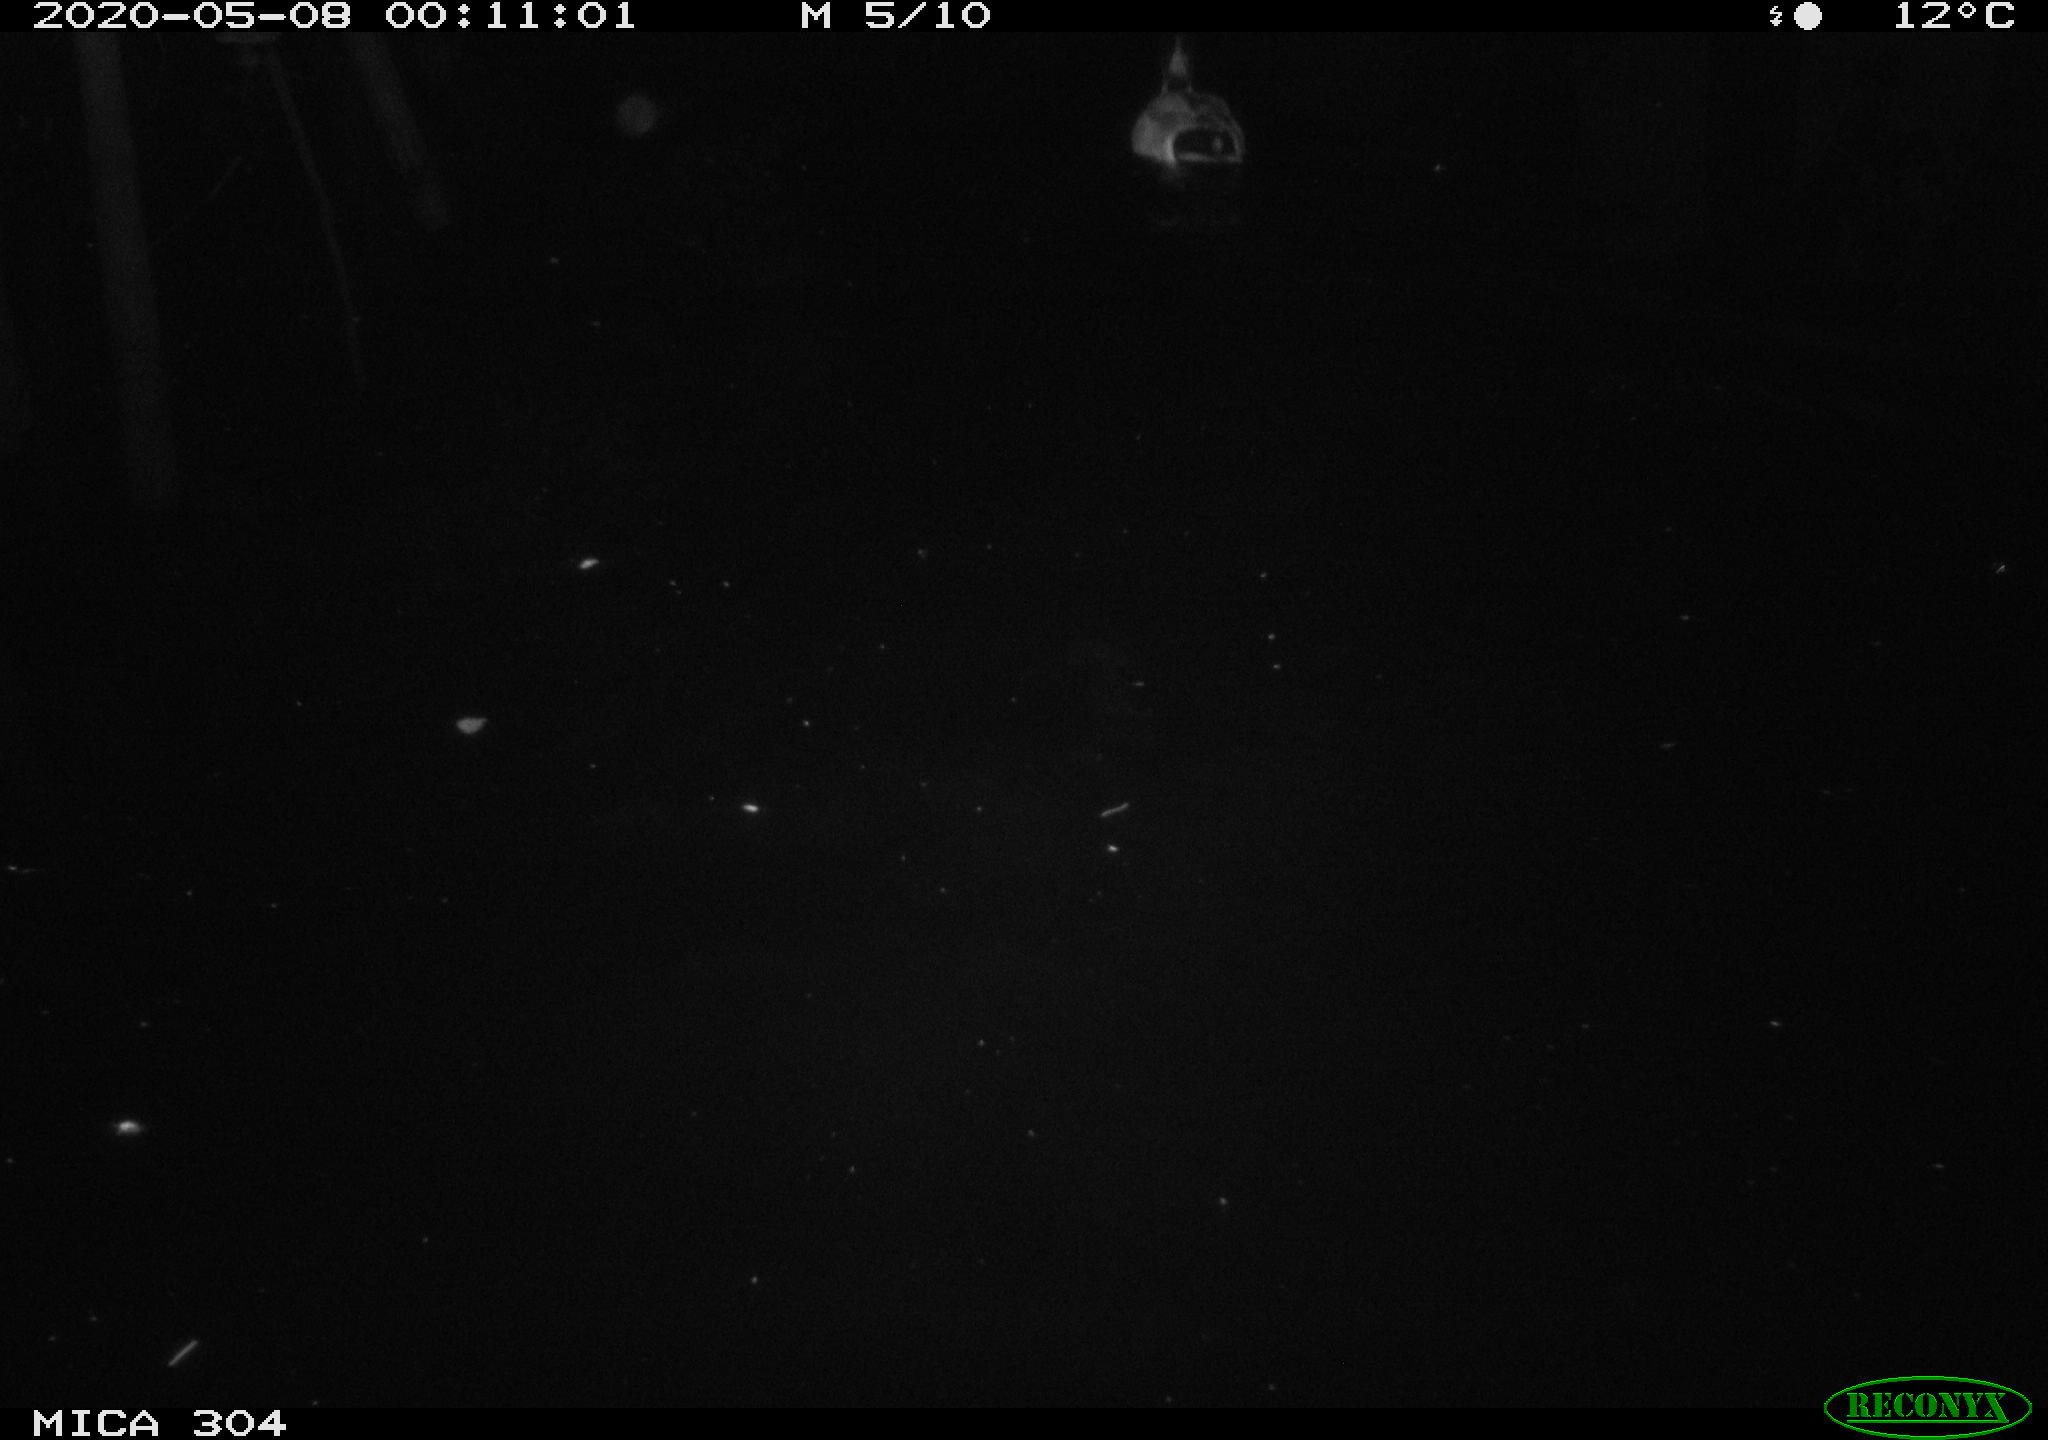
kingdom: Animalia
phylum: Chordata
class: Aves
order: Anseriformes
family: Anatidae
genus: Anas
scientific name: Anas platyrhynchos
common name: Mallard
